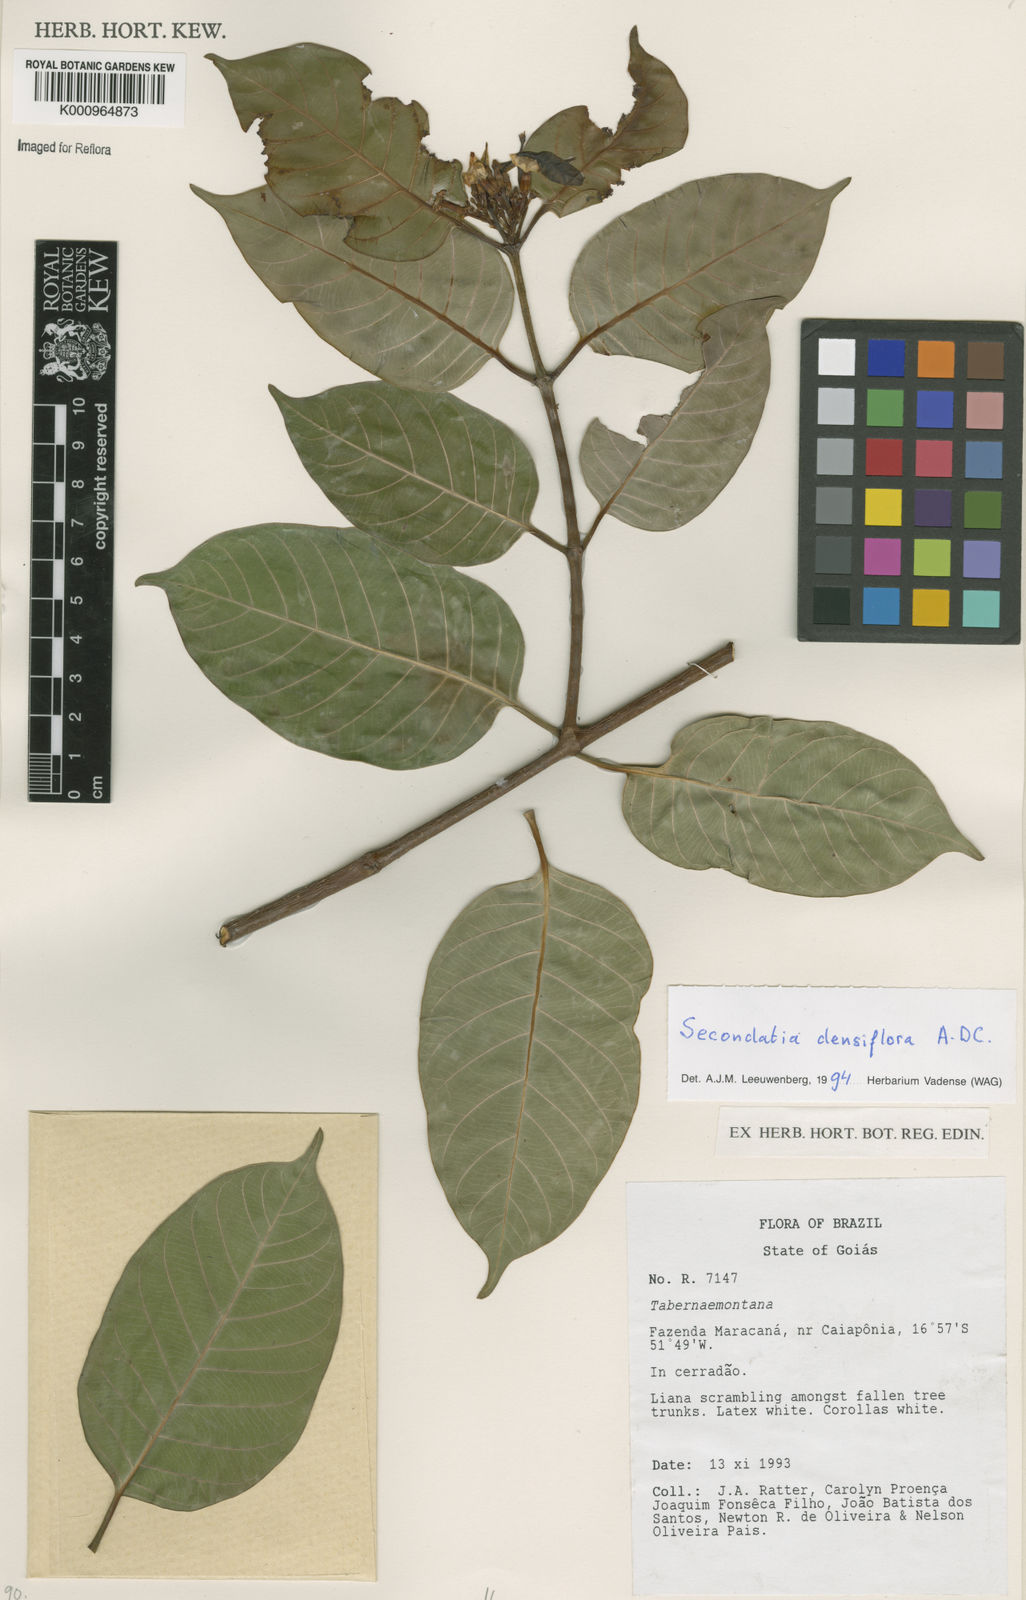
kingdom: Plantae
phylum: Tracheophyta
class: Magnoliopsida
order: Gentianales
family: Apocynaceae
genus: Secondatia
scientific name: Secondatia densiflora
